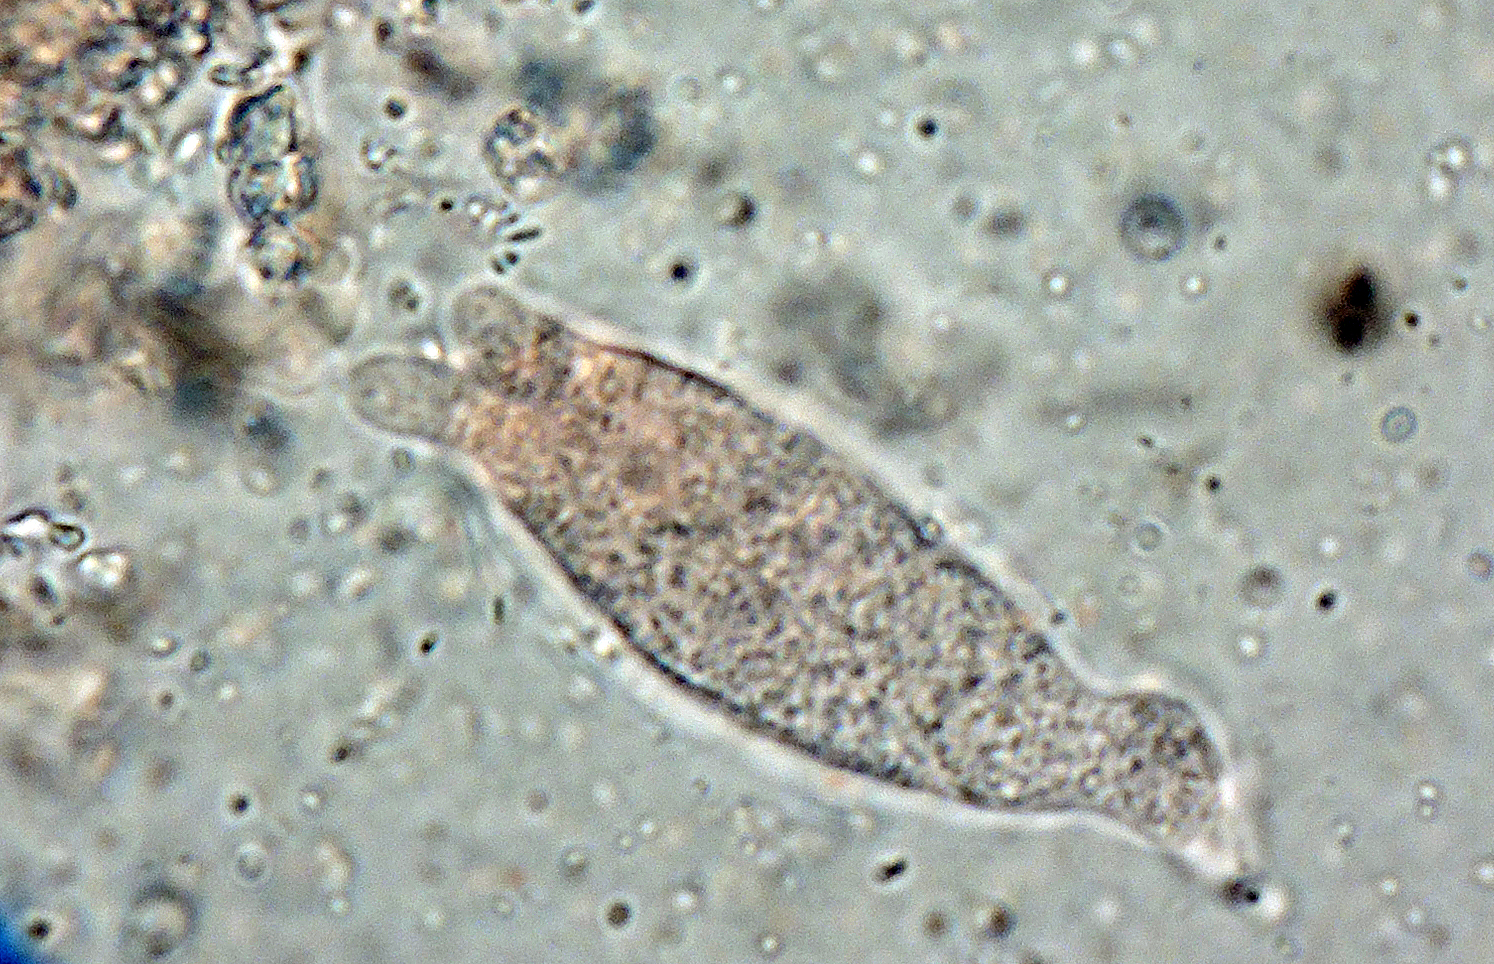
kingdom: Fungi
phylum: Basidiomycota
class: Agaricomycetes
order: Auriculariales
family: Auriculariaceae
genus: Alloexidiopsis
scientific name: Alloexidiopsis calcea
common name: kalkhvid bævrehinde
